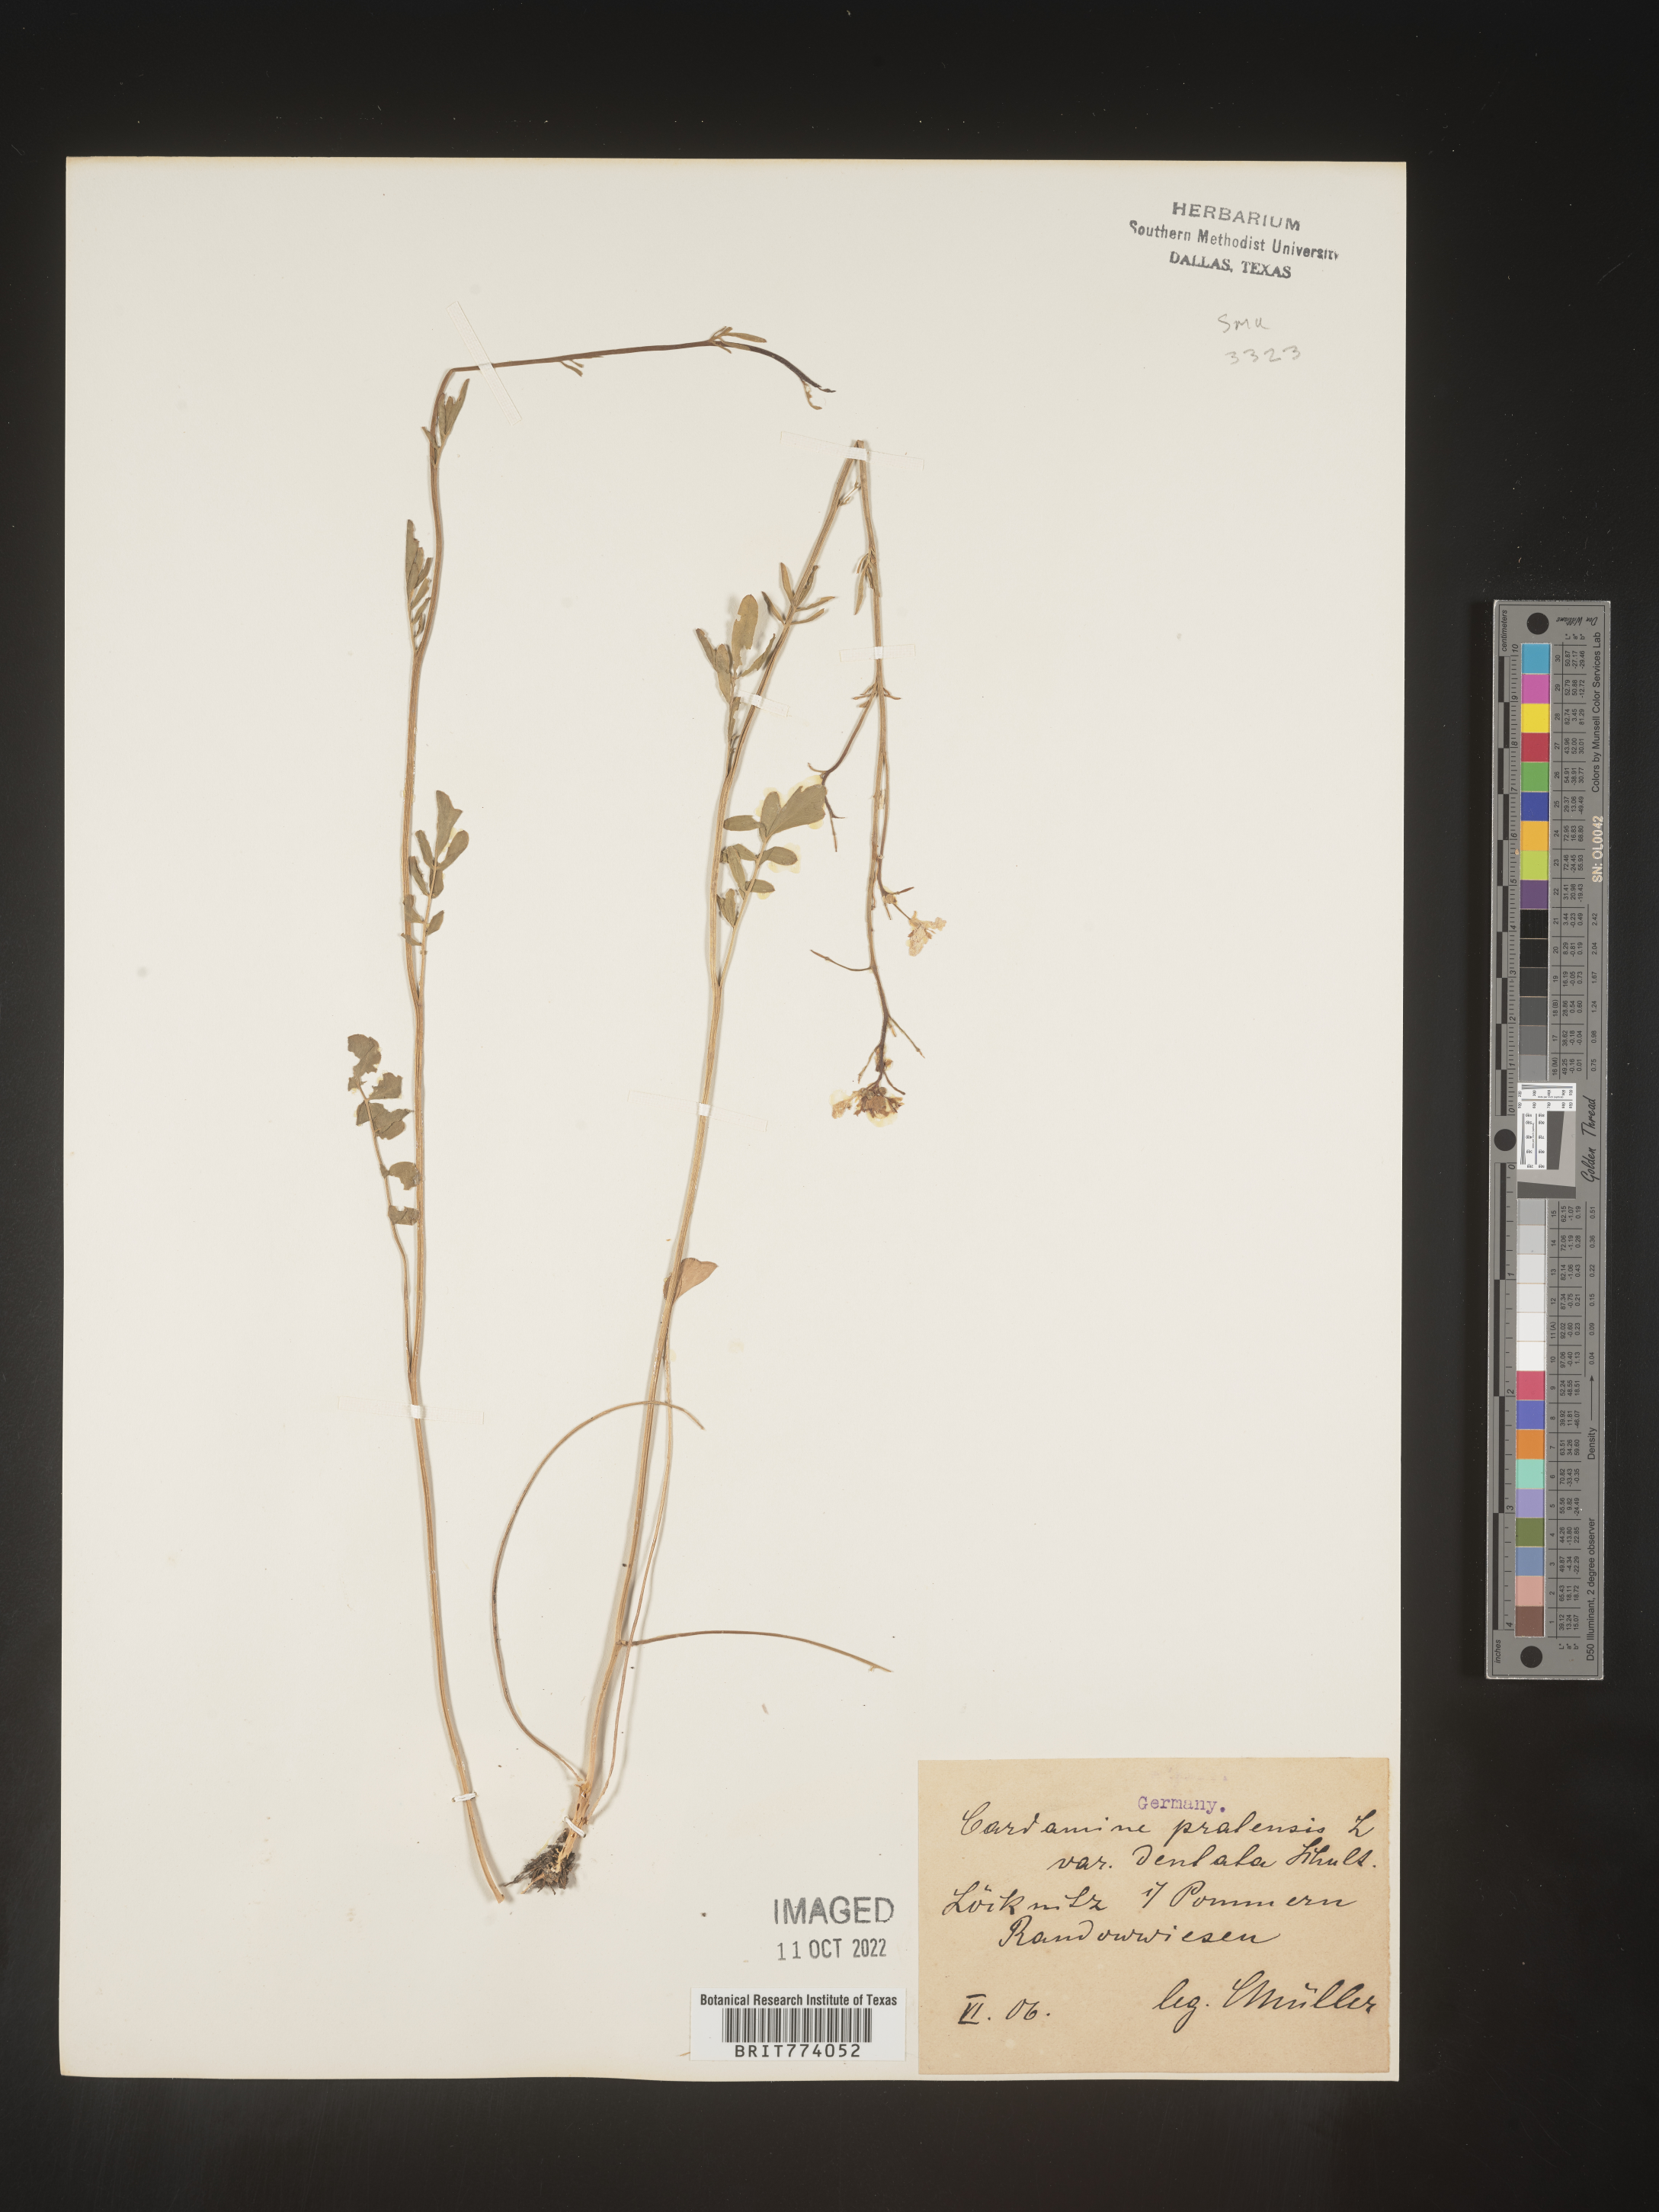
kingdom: Plantae
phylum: Tracheophyta
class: Magnoliopsida
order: Brassicales
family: Brassicaceae
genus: Cardamine
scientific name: Cardamine pratensis
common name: Cuckoo flower
